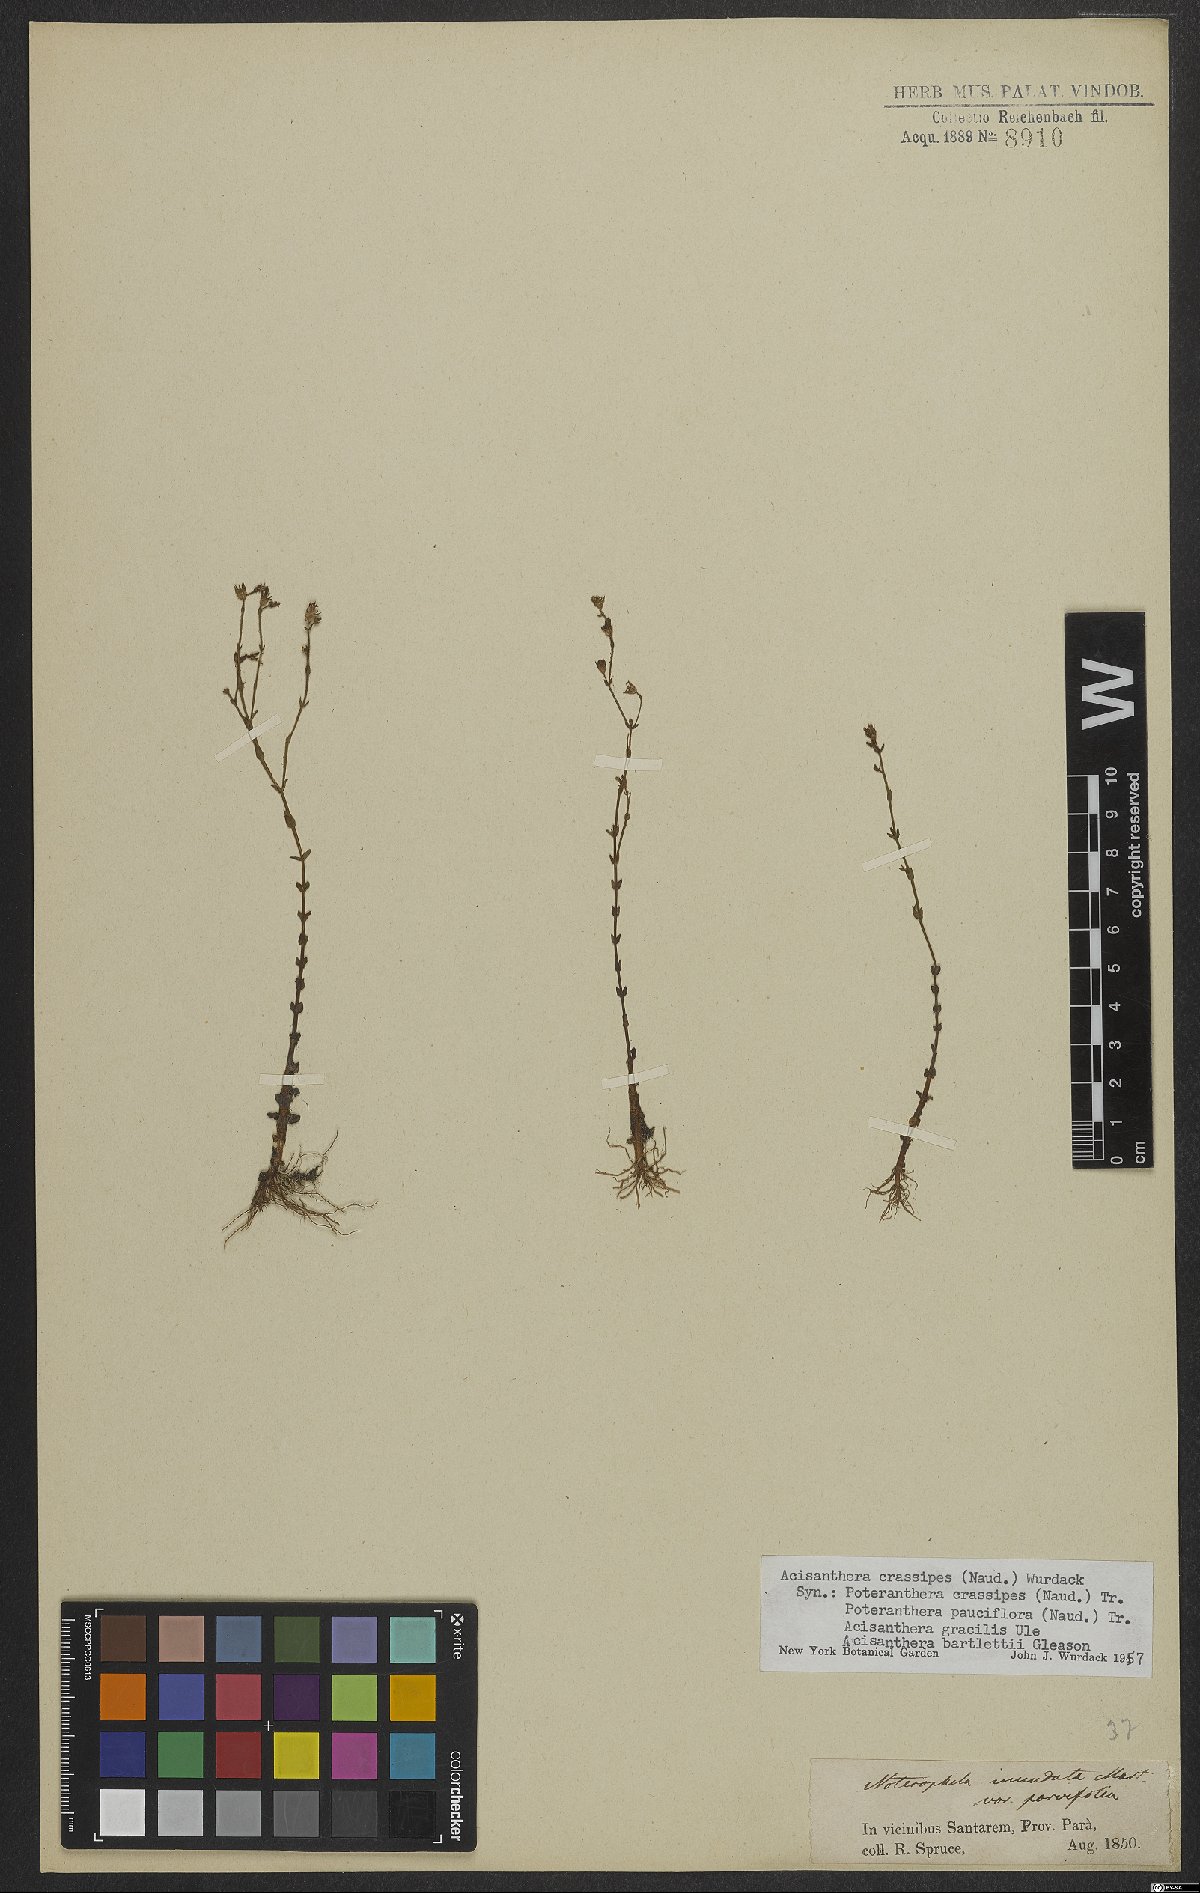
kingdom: Plantae
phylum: Tracheophyta
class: Magnoliopsida
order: Myrtales
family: Melastomataceae
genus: Noterophila
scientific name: Noterophila crassipes
